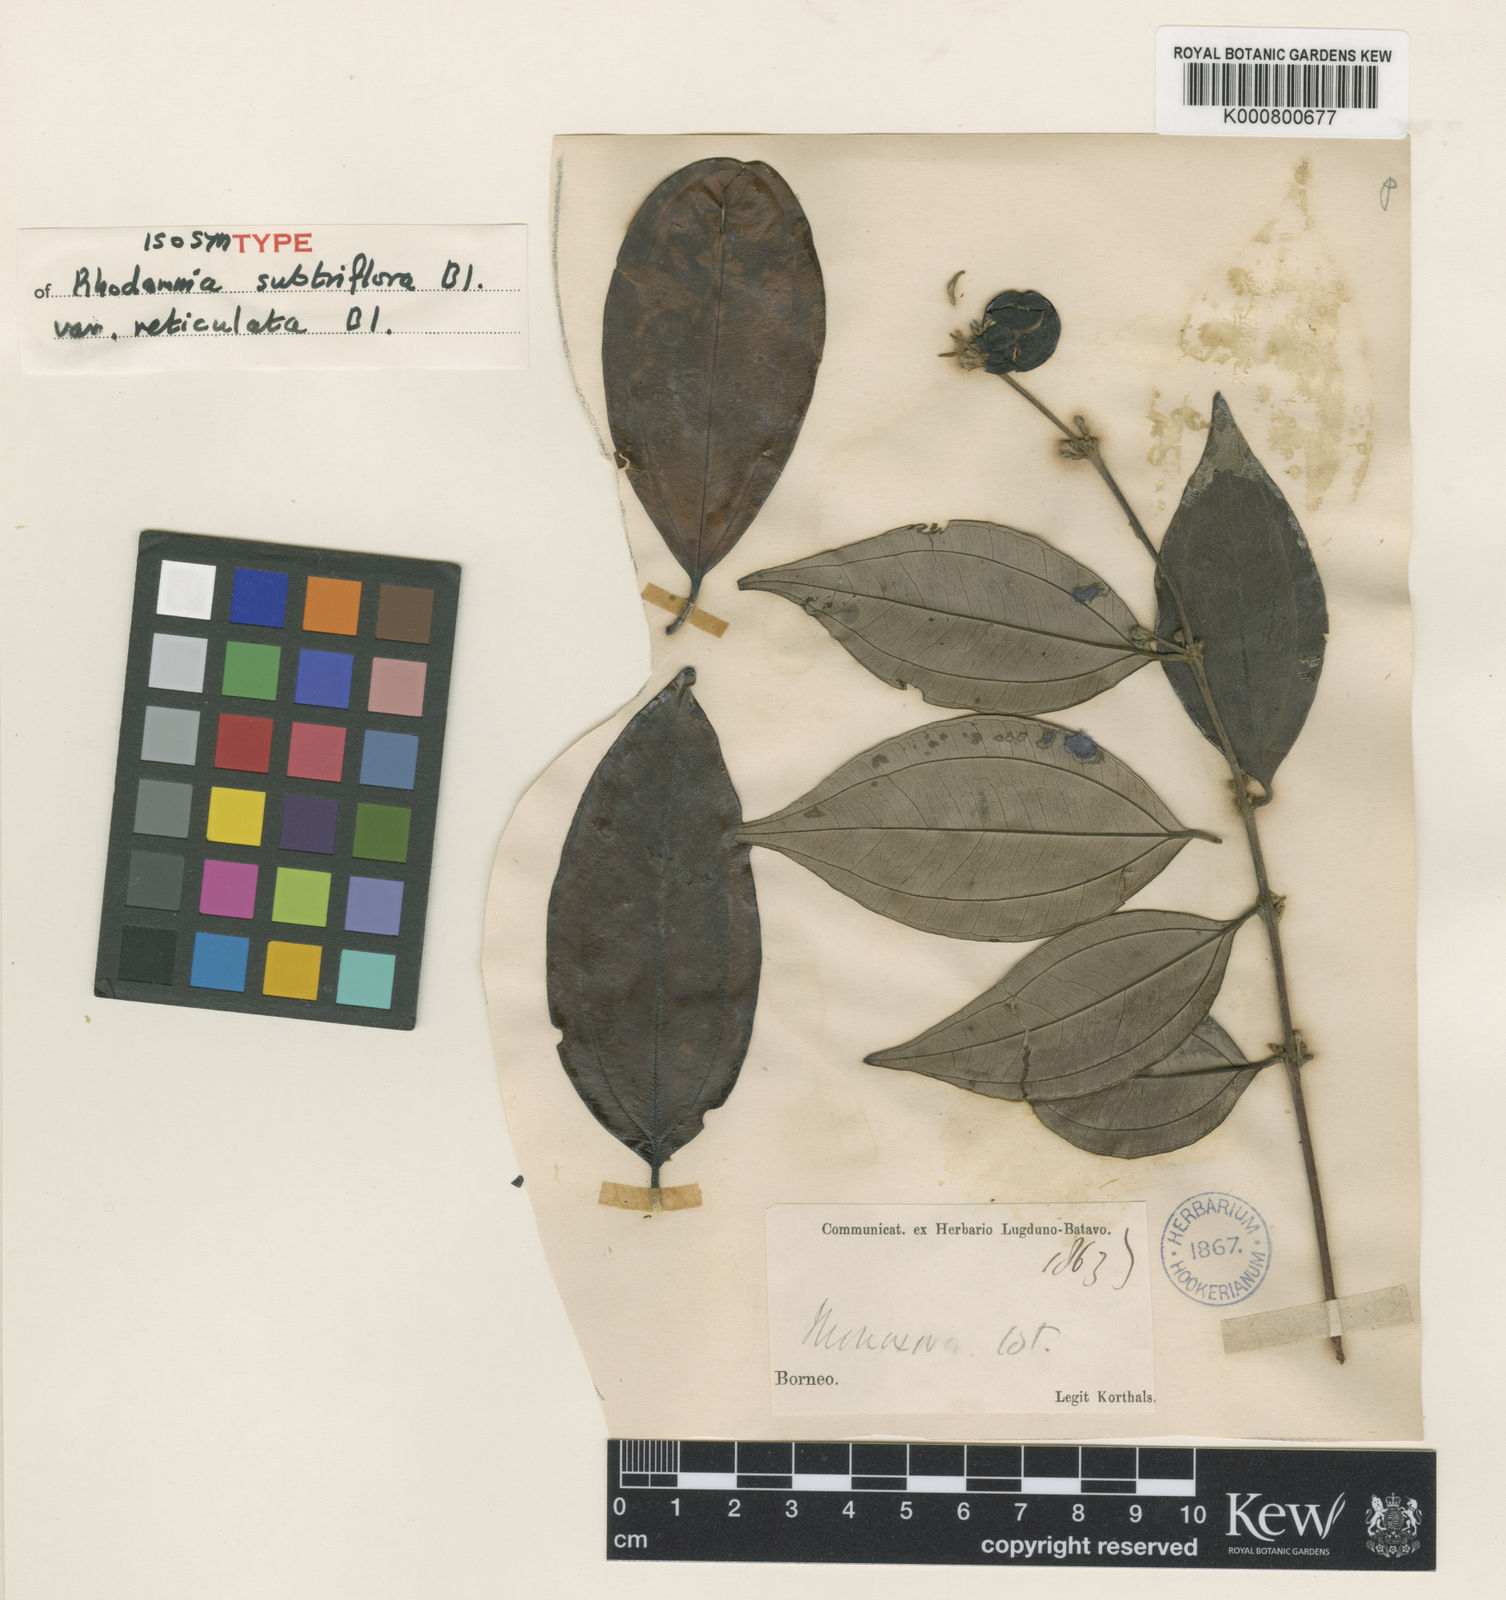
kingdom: Plantae
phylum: Tracheophyta
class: Magnoliopsida
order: Myrtales
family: Myrtaceae
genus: Rhodamnia
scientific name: Rhodamnia cinerea
